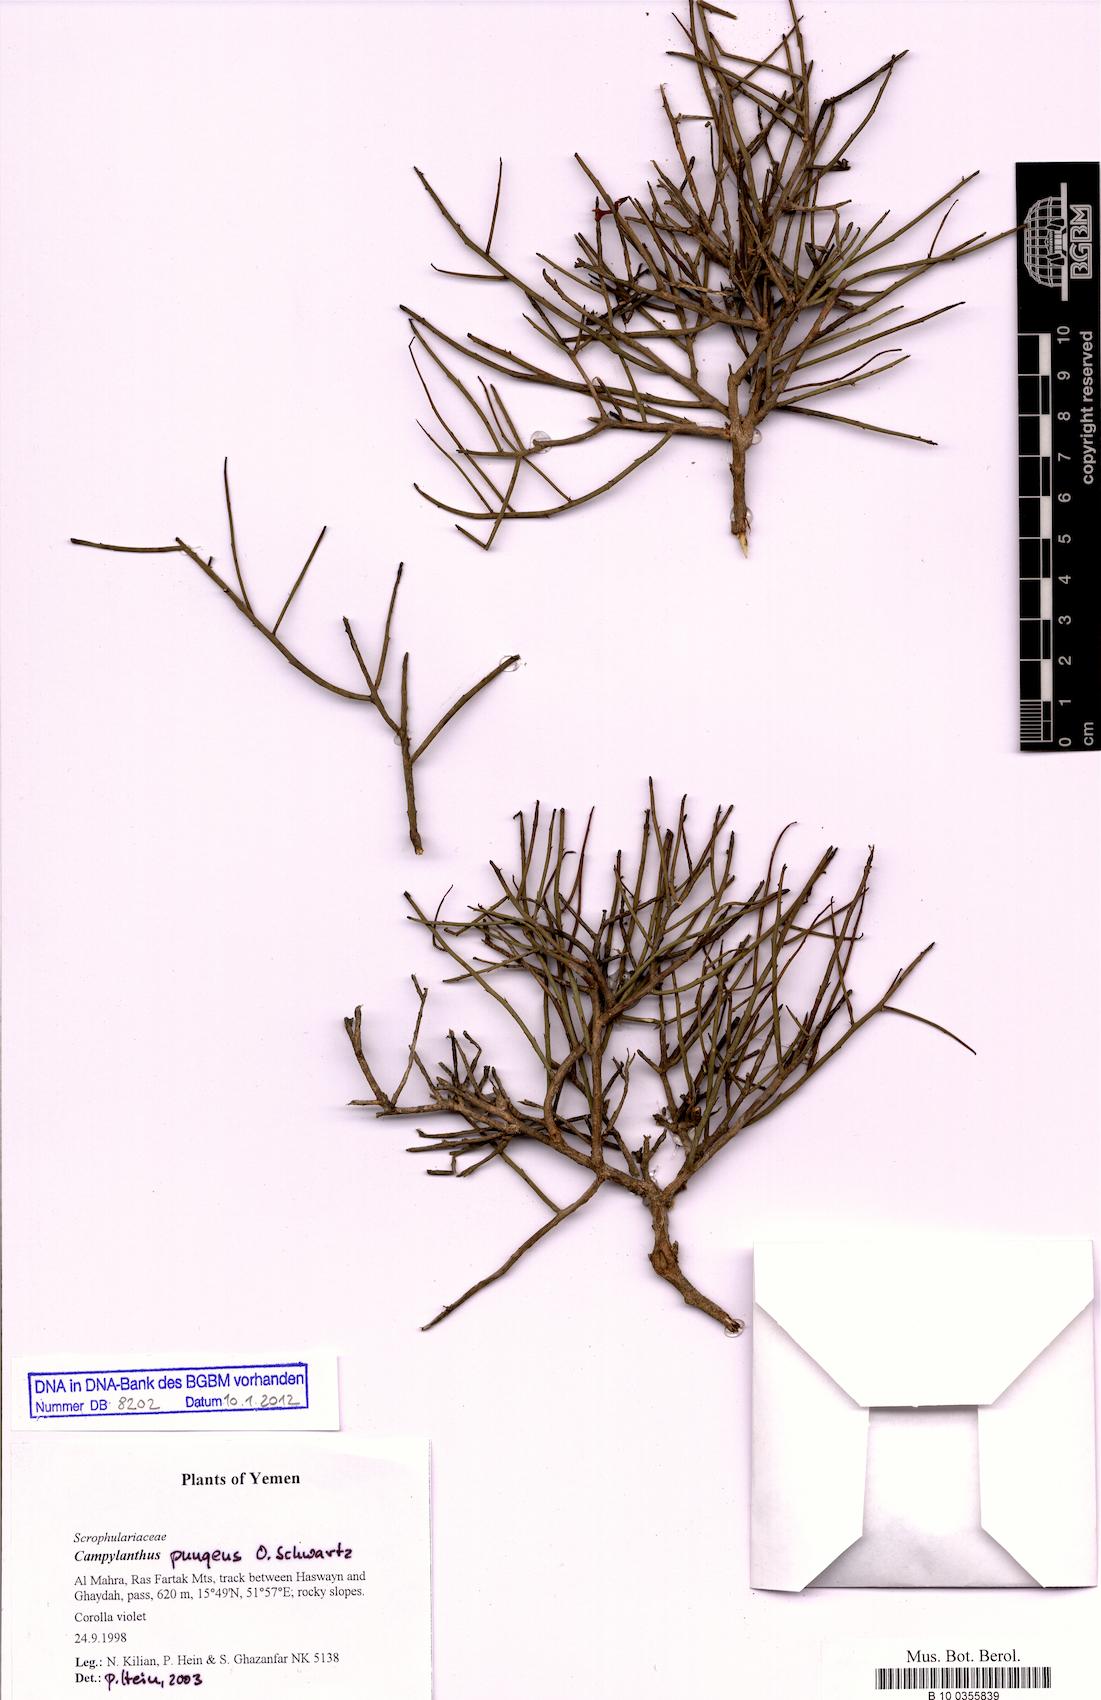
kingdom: Plantae
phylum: Tracheophyta
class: Magnoliopsida
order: Lamiales
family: Plantaginaceae
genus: Campylanthus
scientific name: Campylanthus pungens
